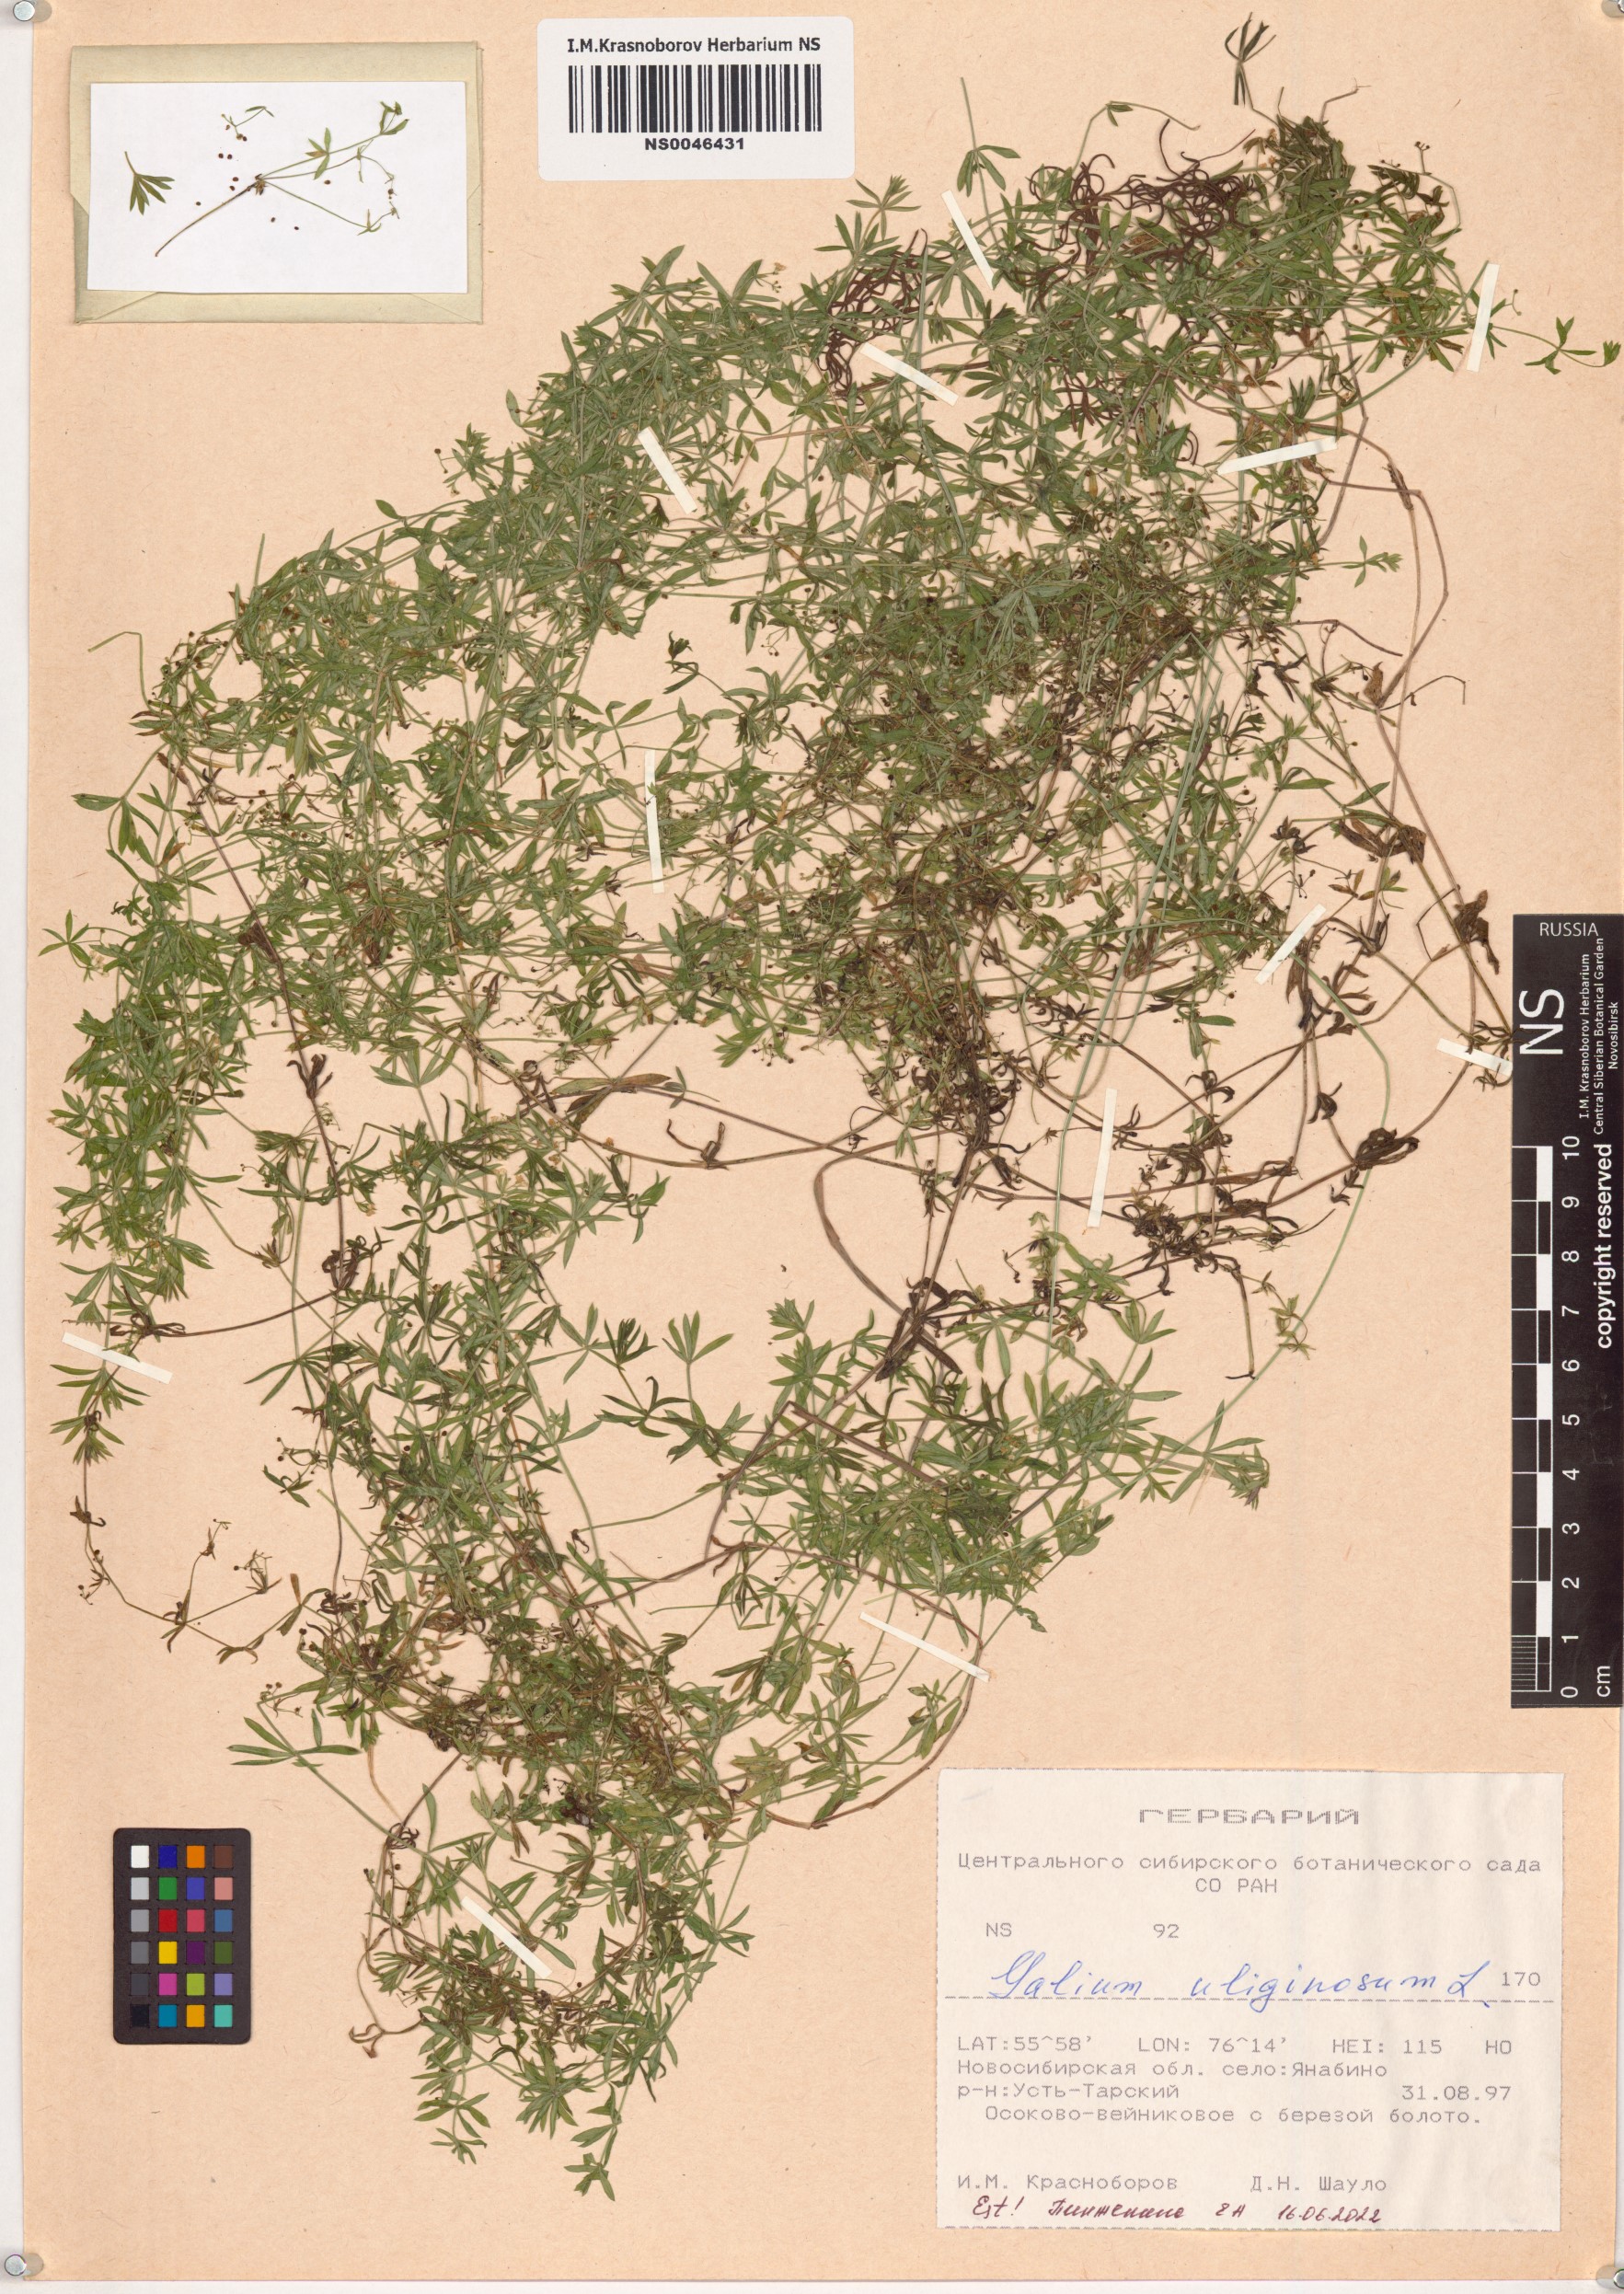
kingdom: Plantae
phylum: Tracheophyta
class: Magnoliopsida
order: Gentianales
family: Rubiaceae
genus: Galium
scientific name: Galium uliginosum
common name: Fen bedstraw
